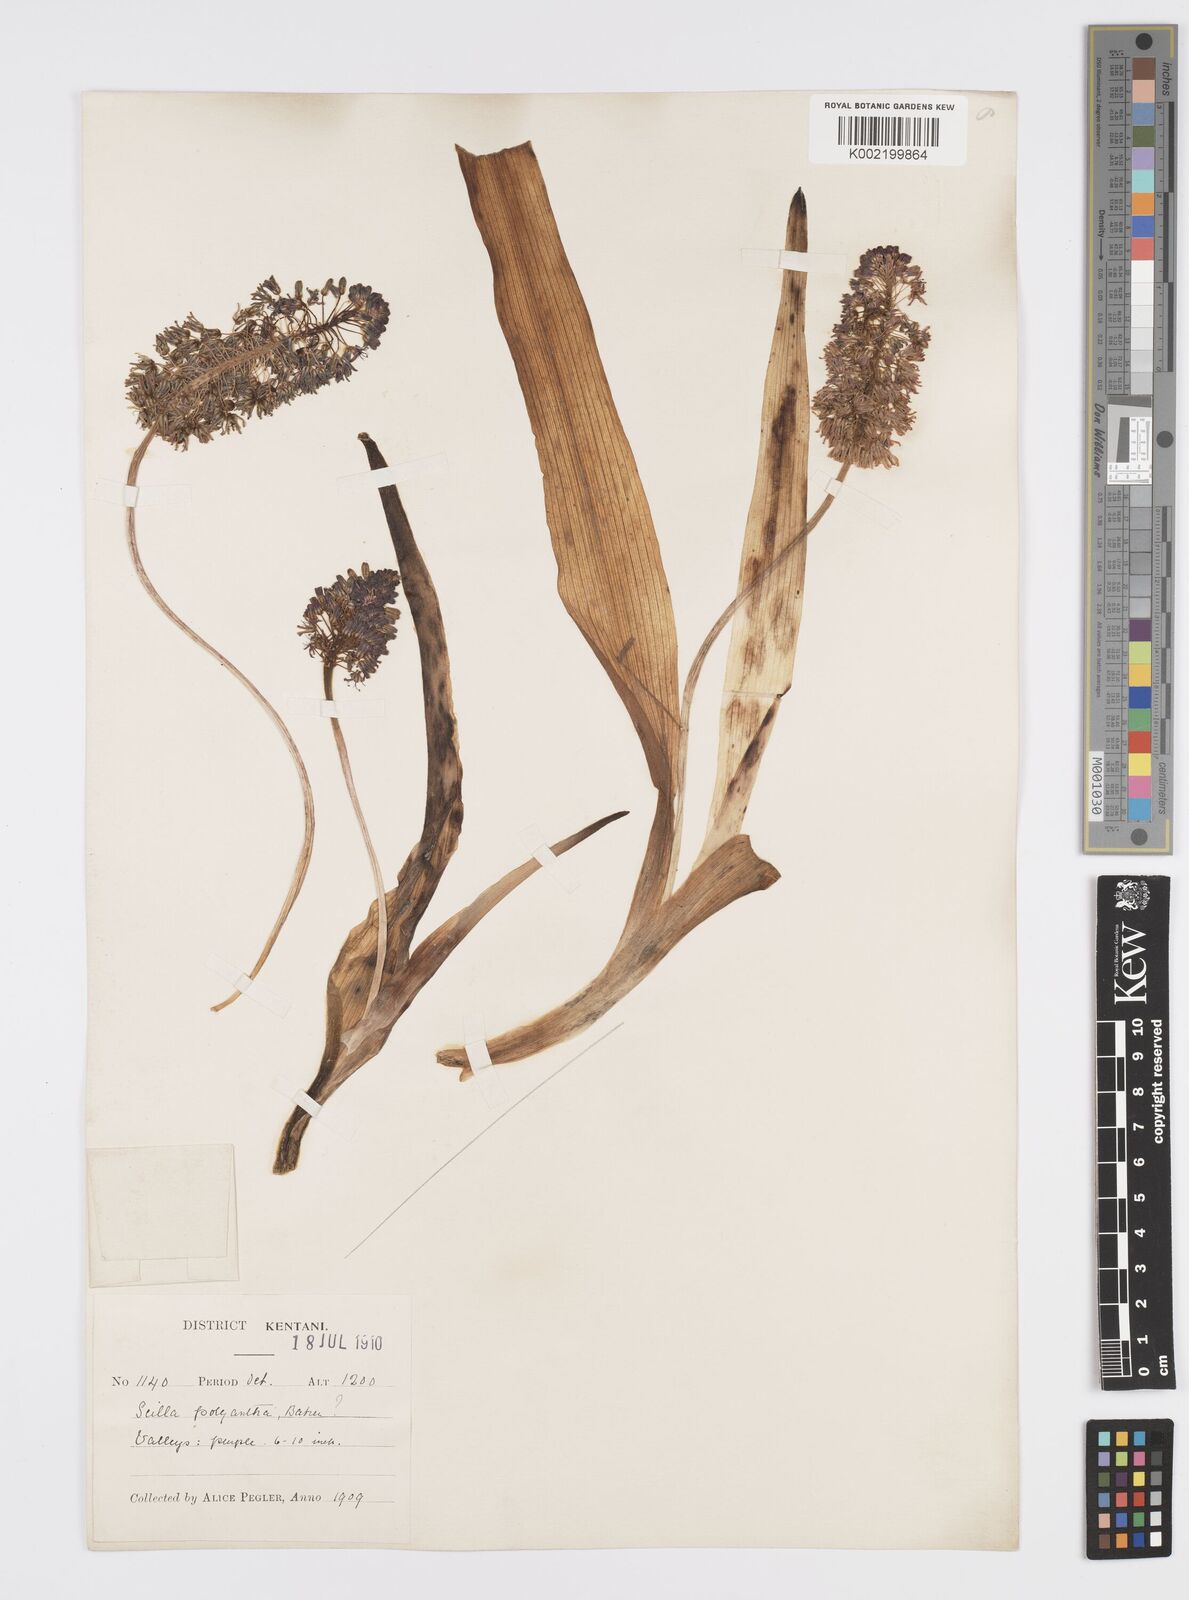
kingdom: Plantae
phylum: Tracheophyta
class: Liliopsida
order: Asparagales
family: Asparagaceae
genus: Ledebouria
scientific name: Ledebouria floribunda
